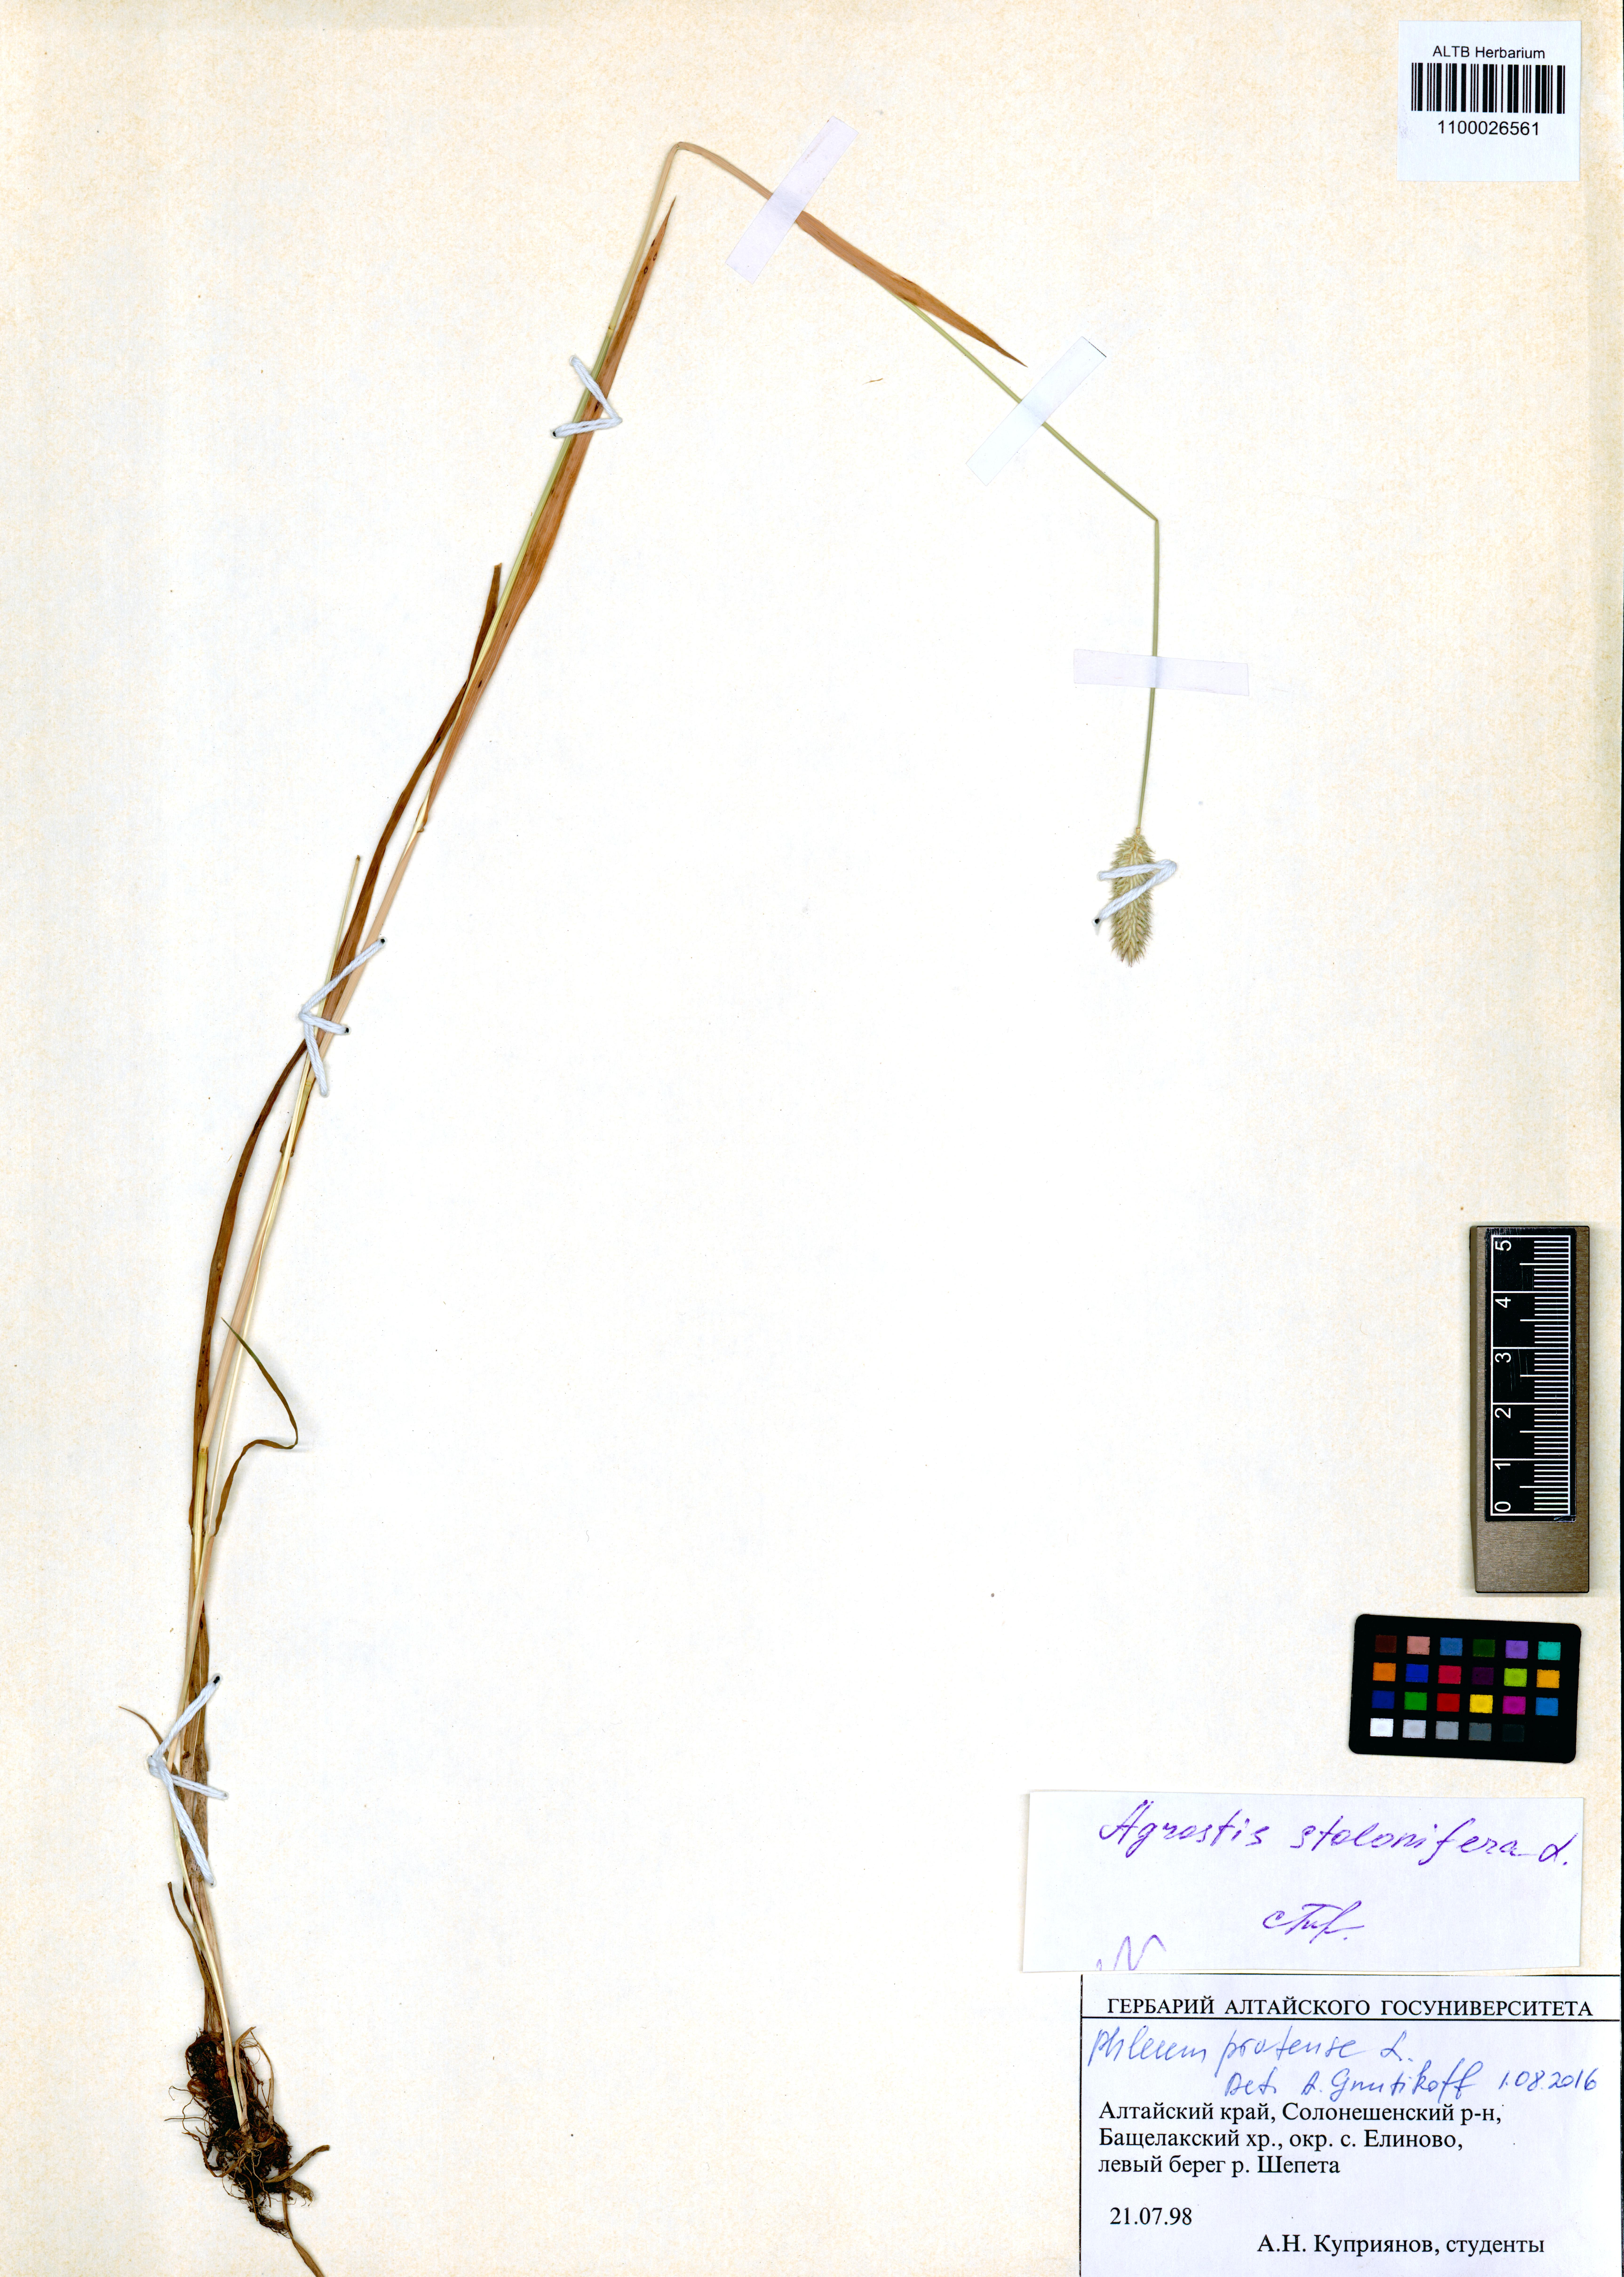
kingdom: Plantae
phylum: Tracheophyta
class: Liliopsida
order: Poales
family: Poaceae
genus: Phleum
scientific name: Phleum pratense
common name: Timothy grass
